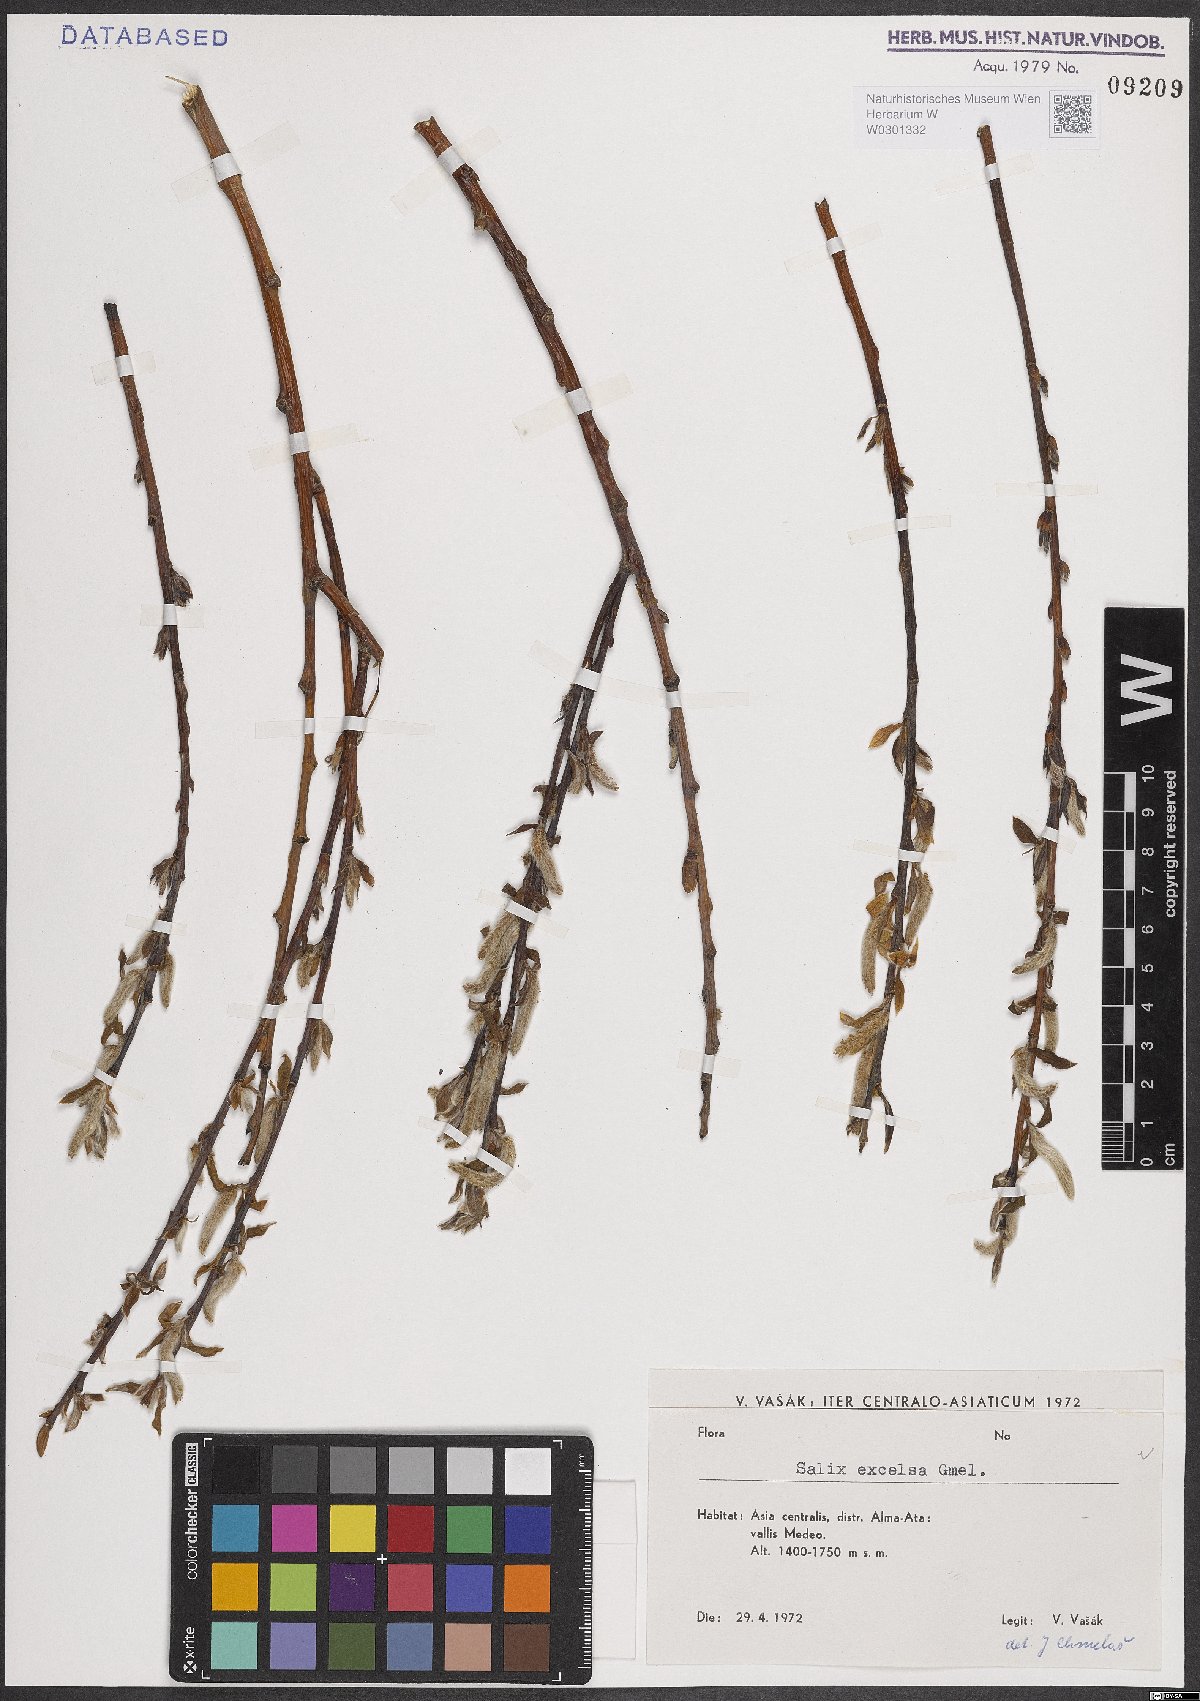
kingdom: Plantae
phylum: Tracheophyta
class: Magnoliopsida
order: Malpighiales
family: Salicaceae
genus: Salix
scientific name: Salix excelsa
